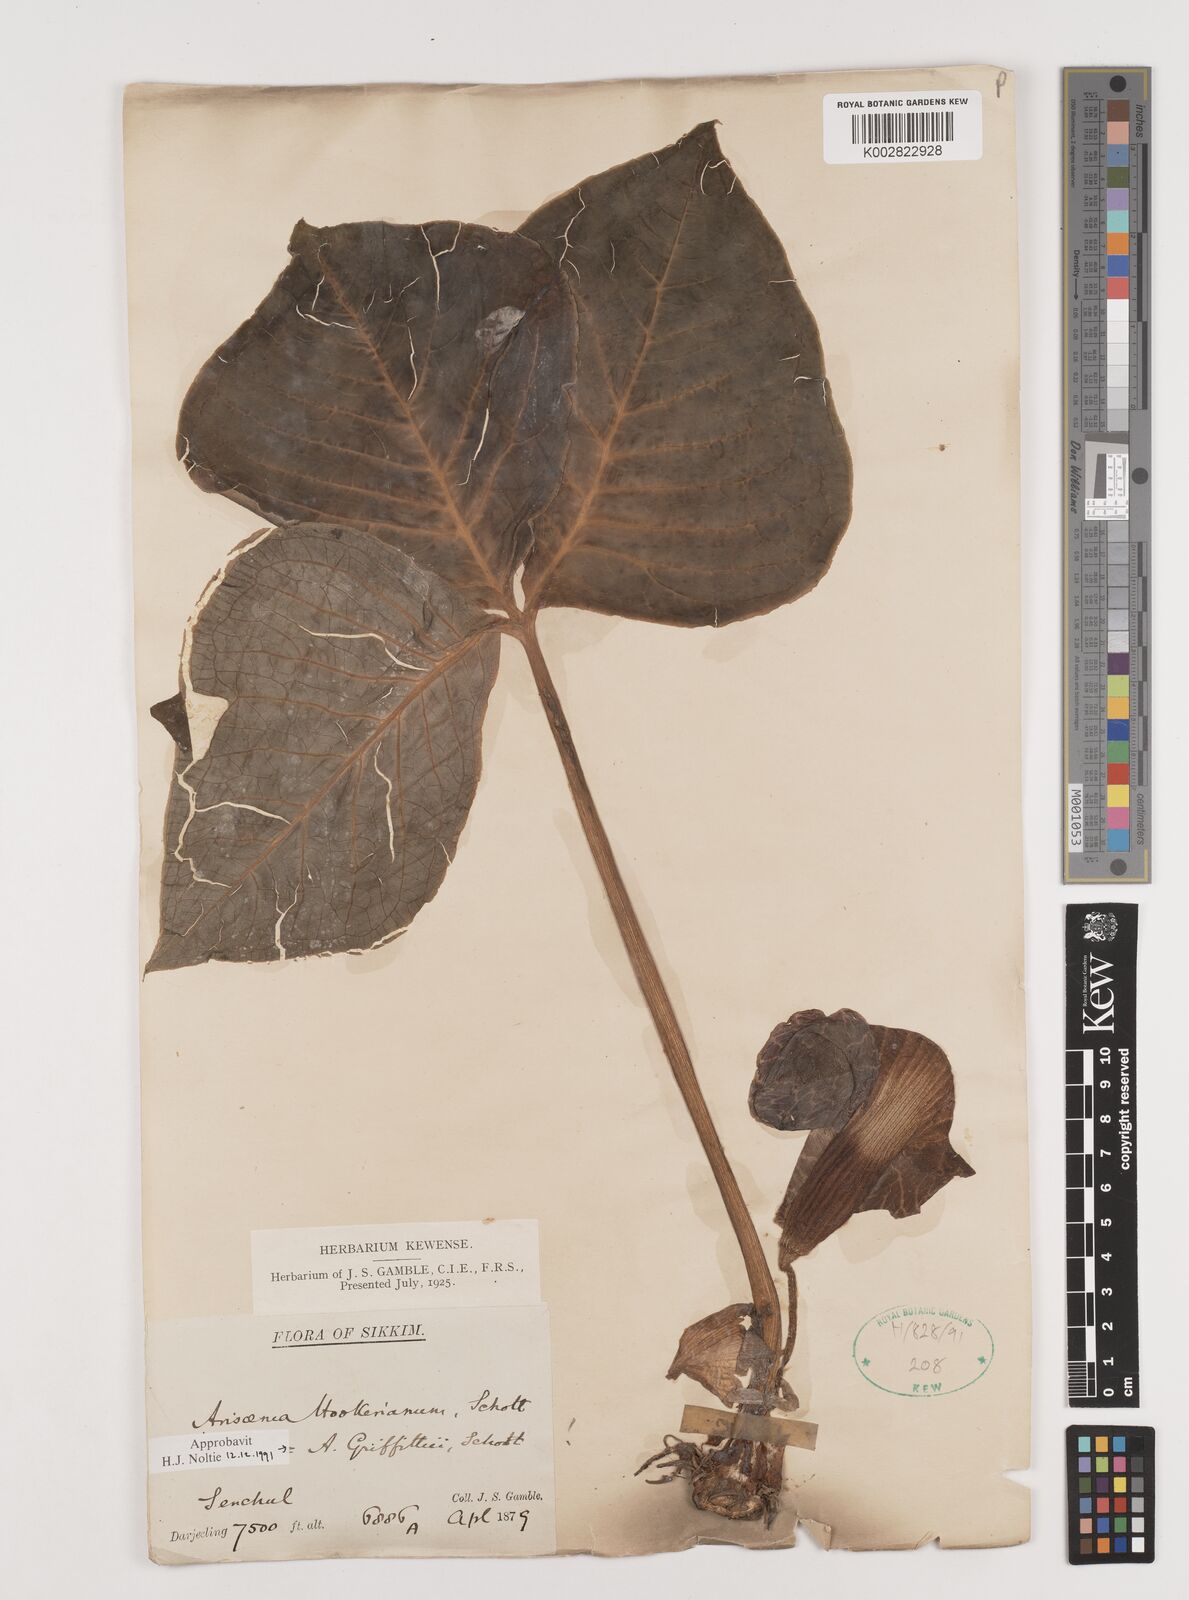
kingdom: Plantae
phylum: Tracheophyta
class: Liliopsida
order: Alismatales
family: Araceae
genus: Arisaema
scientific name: Arisaema griffithii
